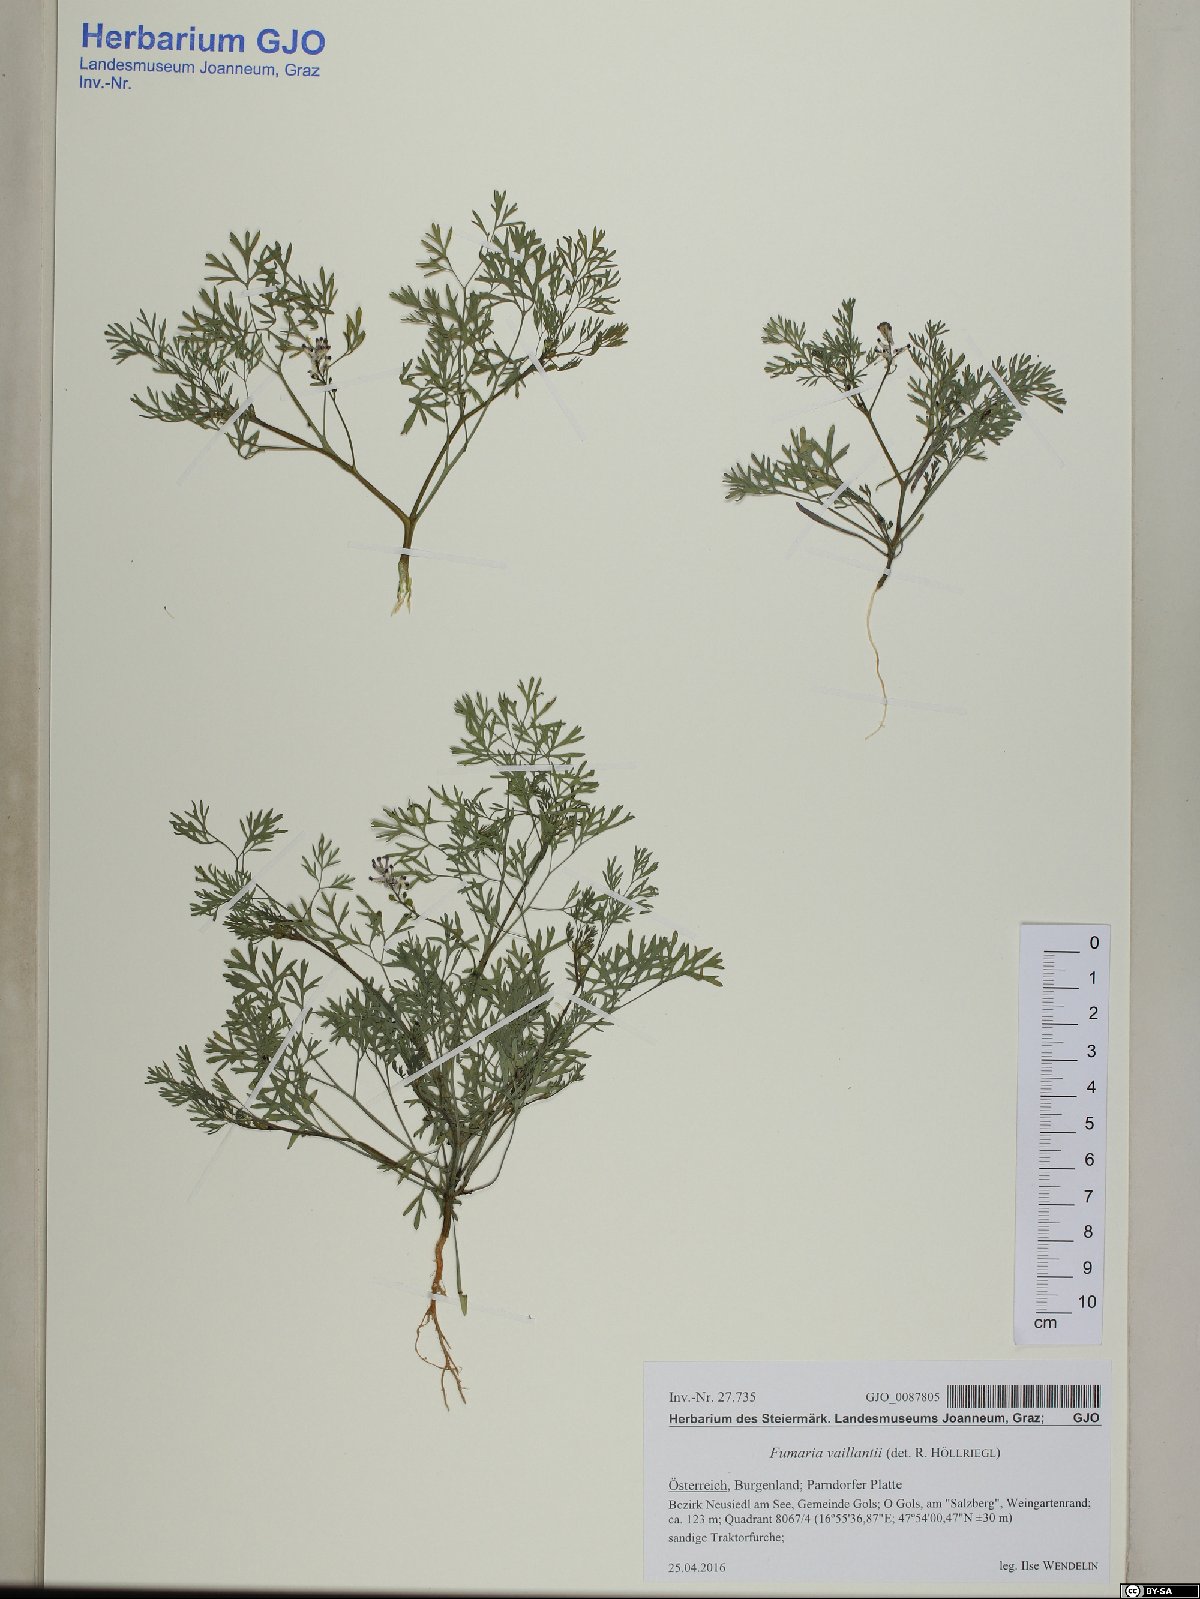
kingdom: Plantae
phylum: Tracheophyta
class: Magnoliopsida
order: Ranunculales
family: Papaveraceae
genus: Fumaria
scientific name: Fumaria vaillantii
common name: Few-flowered fumitory
